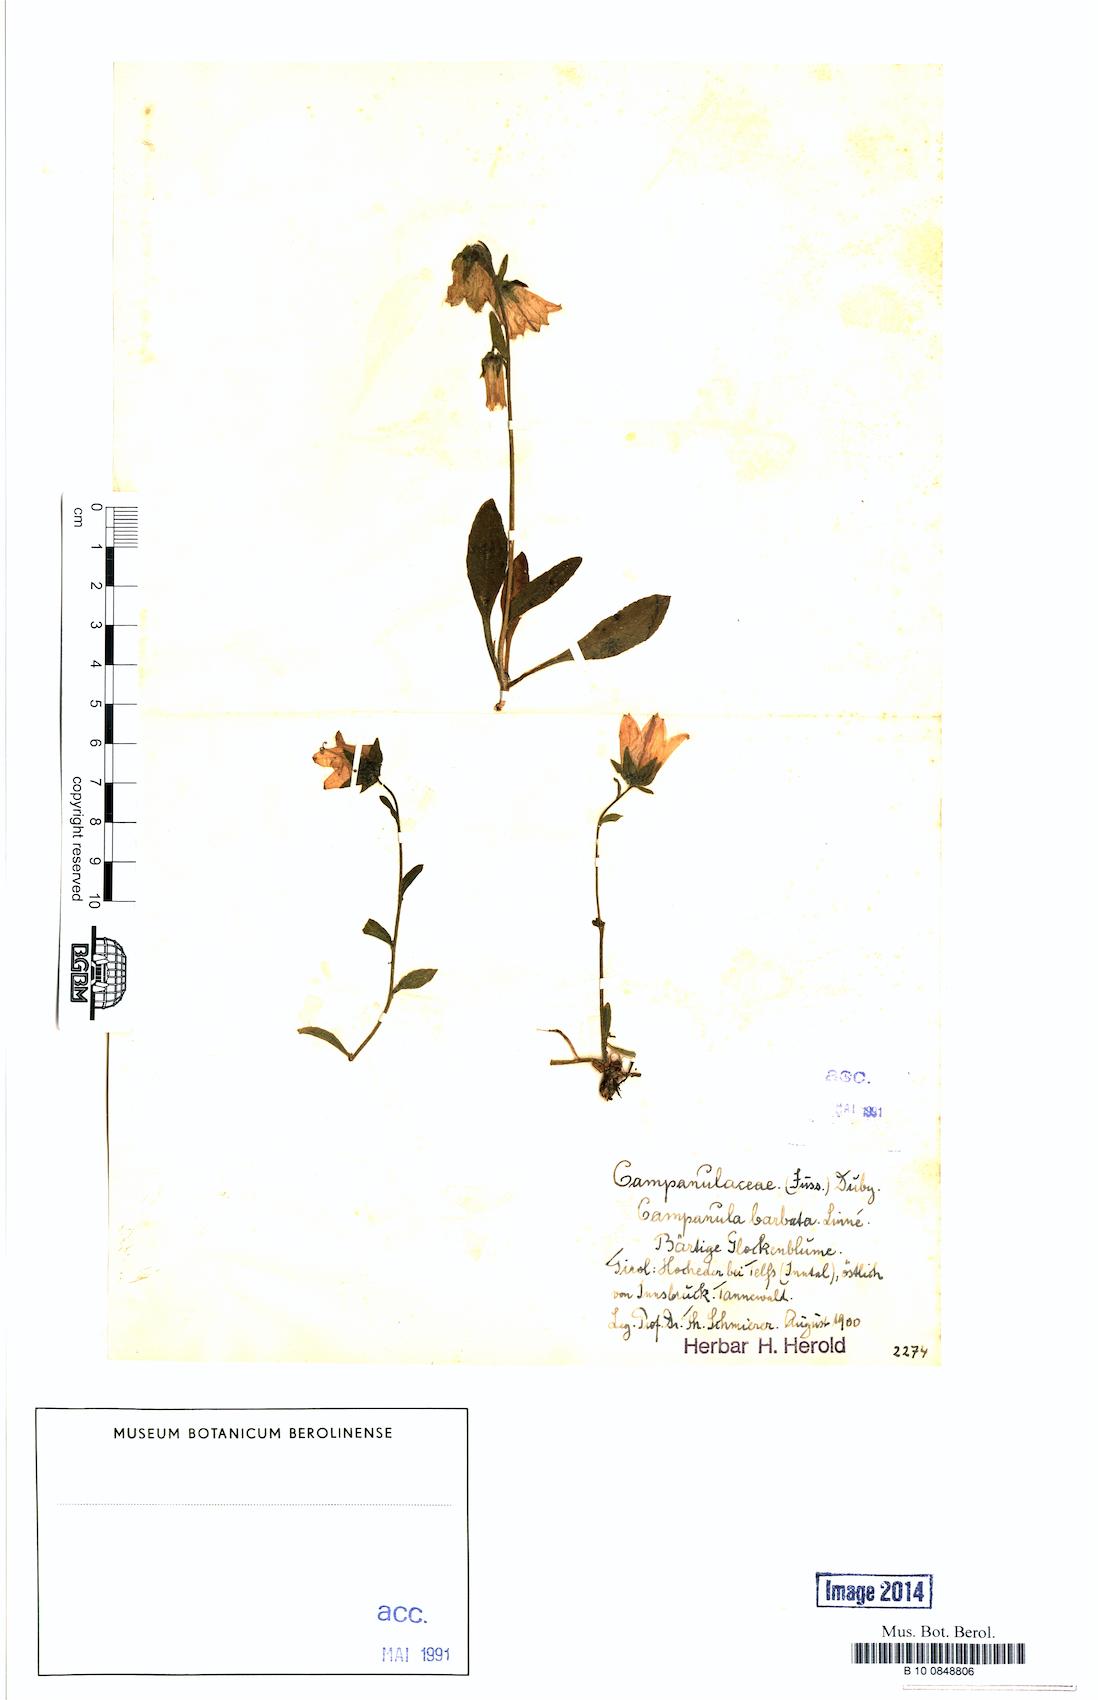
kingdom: Plantae
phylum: Tracheophyta
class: Magnoliopsida
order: Asterales
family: Campanulaceae
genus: Campanula
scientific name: Campanula barbata
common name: Bearded bellflower
